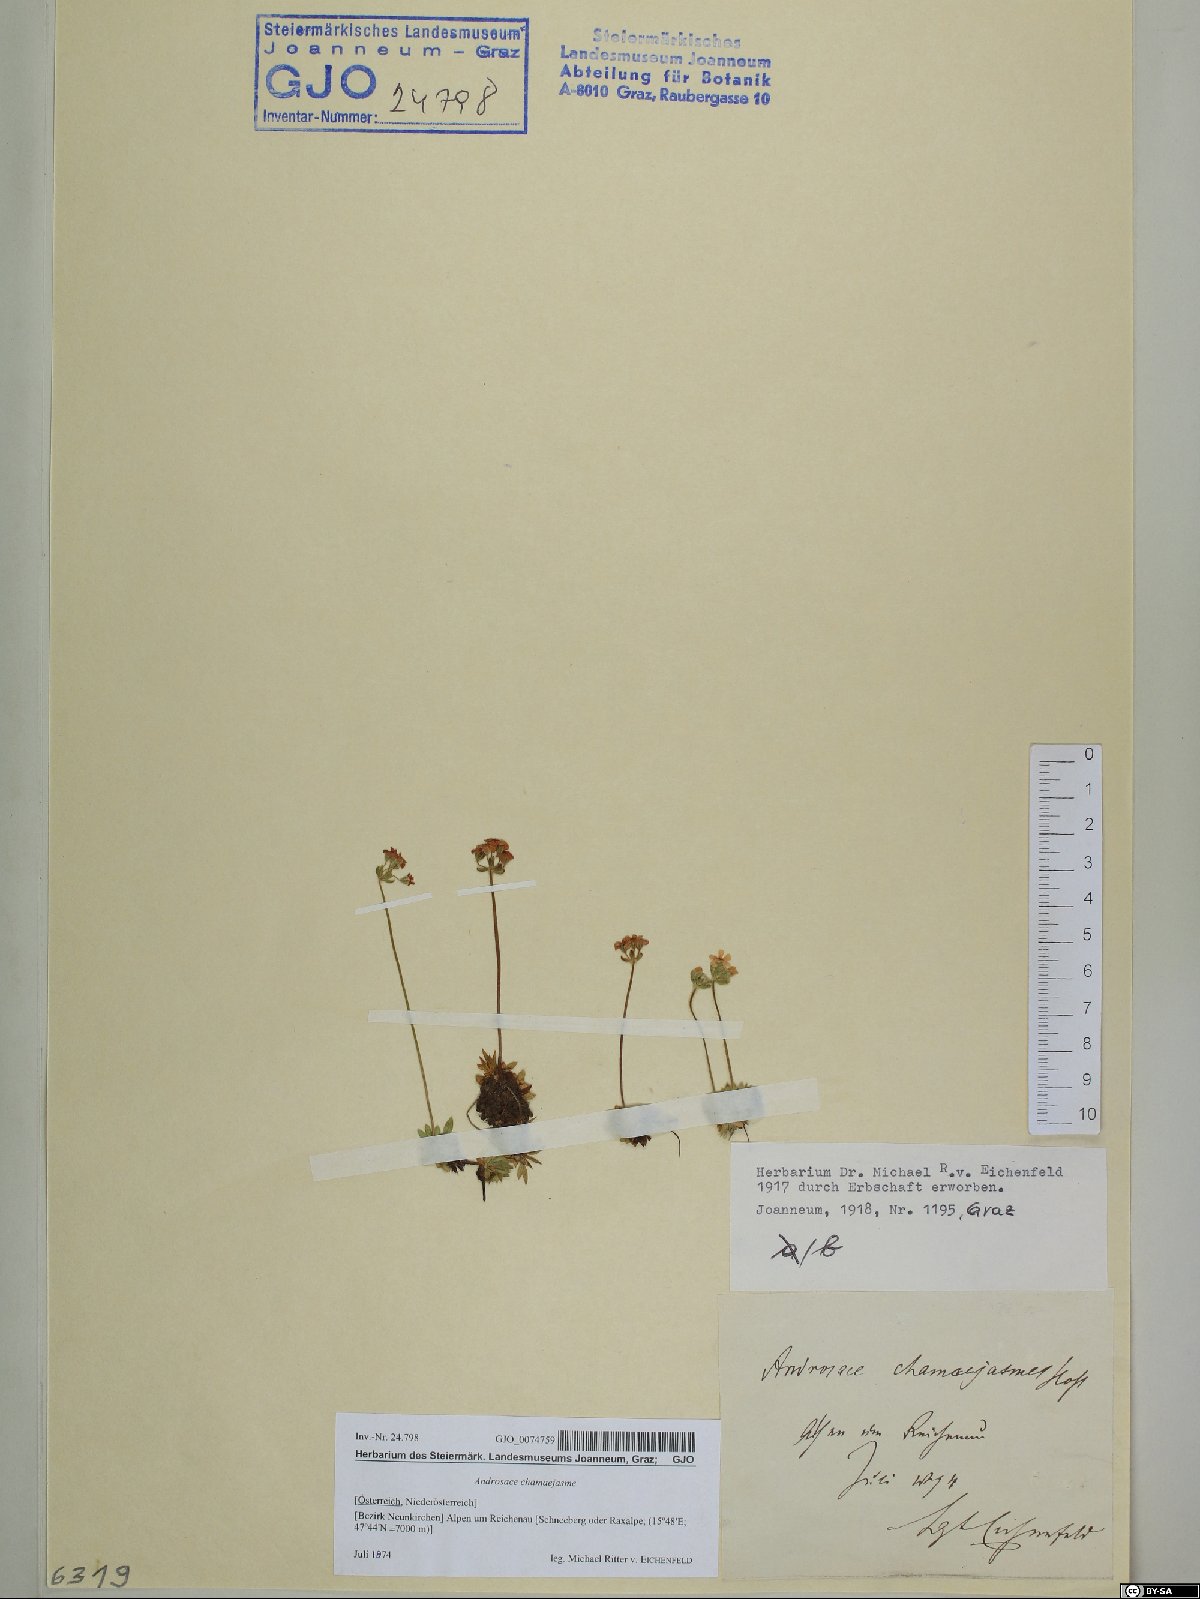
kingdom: Plantae
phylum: Tracheophyta
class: Magnoliopsida
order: Ericales
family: Primulaceae
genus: Androsace
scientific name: Androsace chamaejasme
